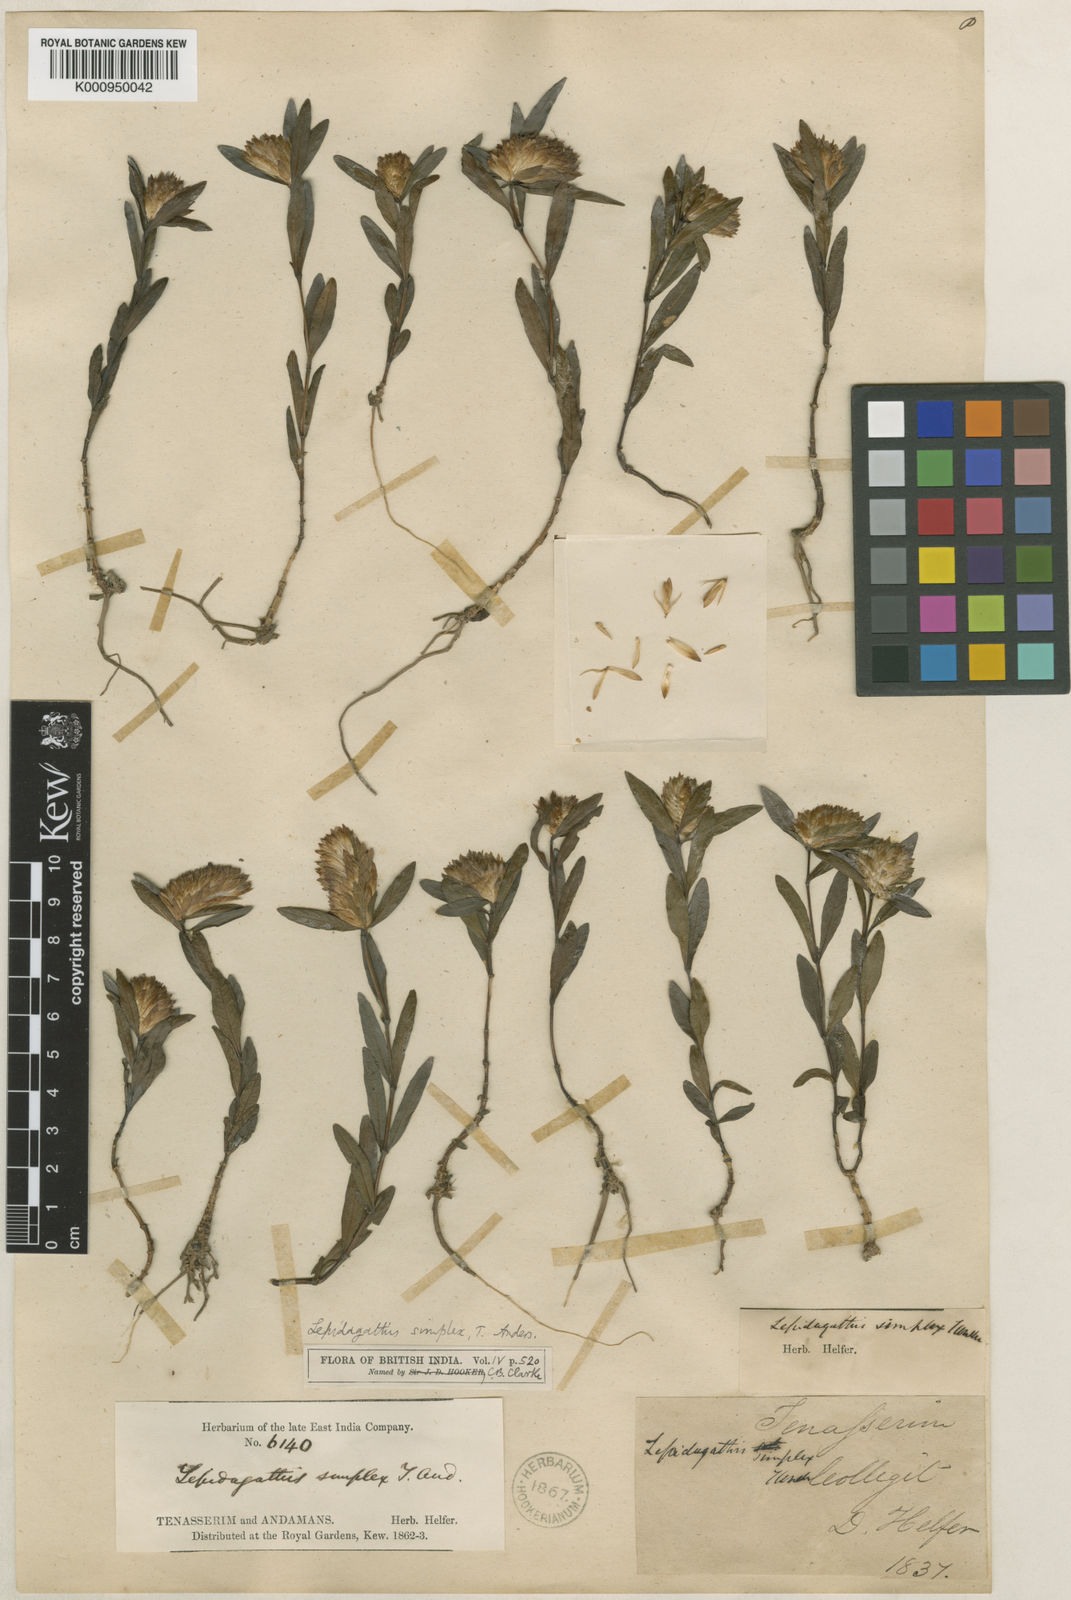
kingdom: Plantae
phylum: Tracheophyta
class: Magnoliopsida
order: Lamiales
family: Acanthaceae
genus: Lepidagathis
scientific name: Lepidagathis simplex
